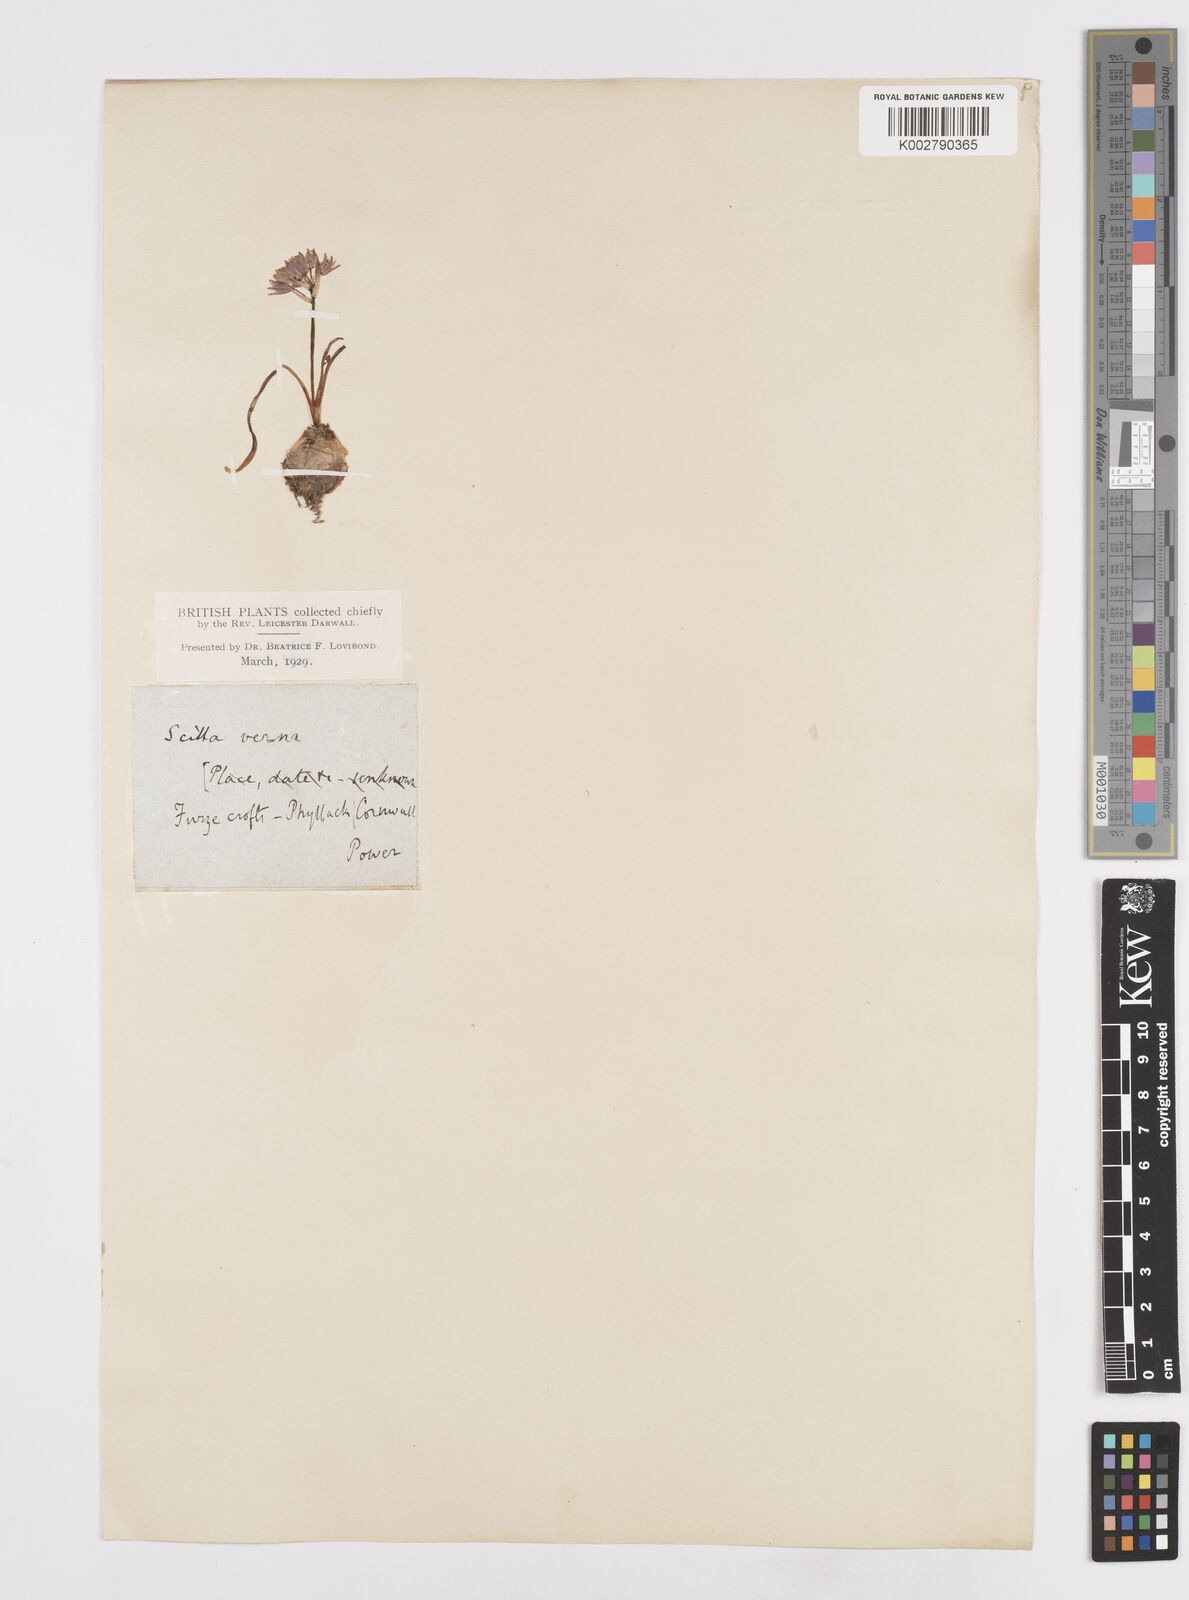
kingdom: Plantae
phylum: Tracheophyta
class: Liliopsida
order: Asparagales
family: Asparagaceae
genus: Scilla
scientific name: Scilla verna
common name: Spring squill
